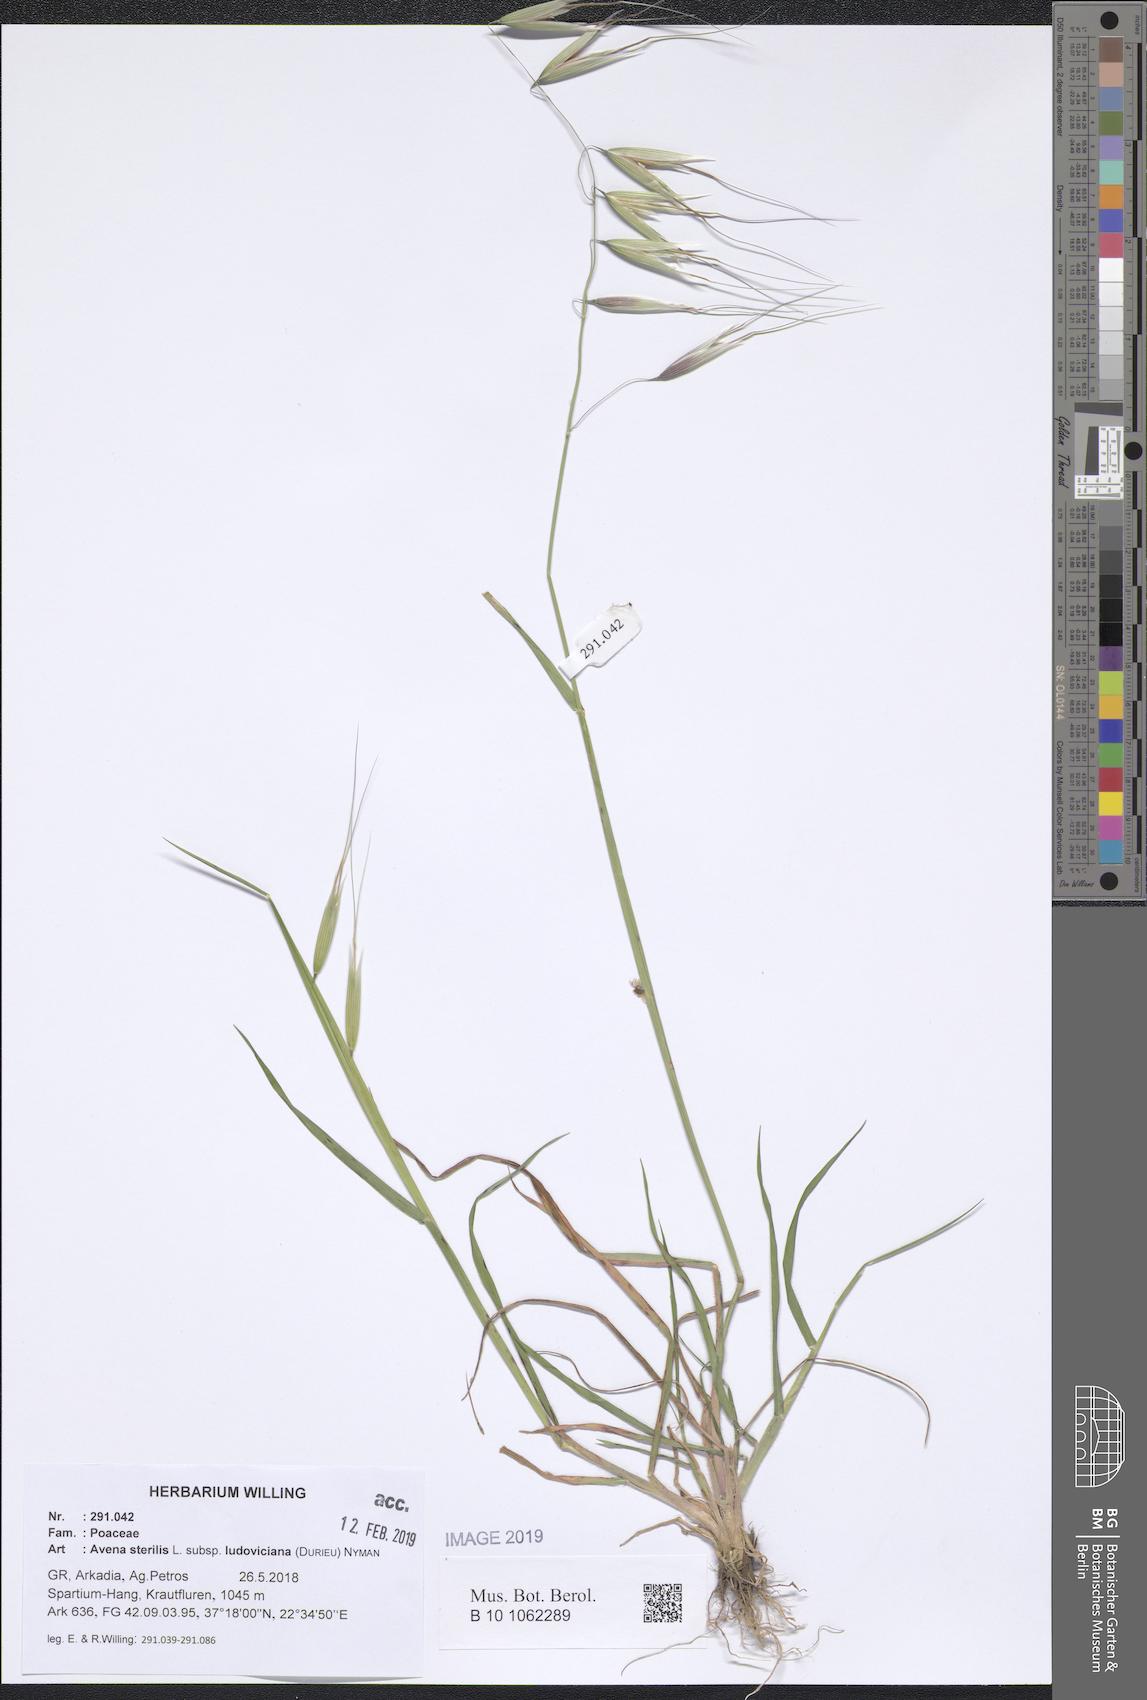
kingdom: Plantae
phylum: Tracheophyta
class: Liliopsida
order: Poales
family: Poaceae
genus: Avena
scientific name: Avena sterilis
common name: Animated oat
